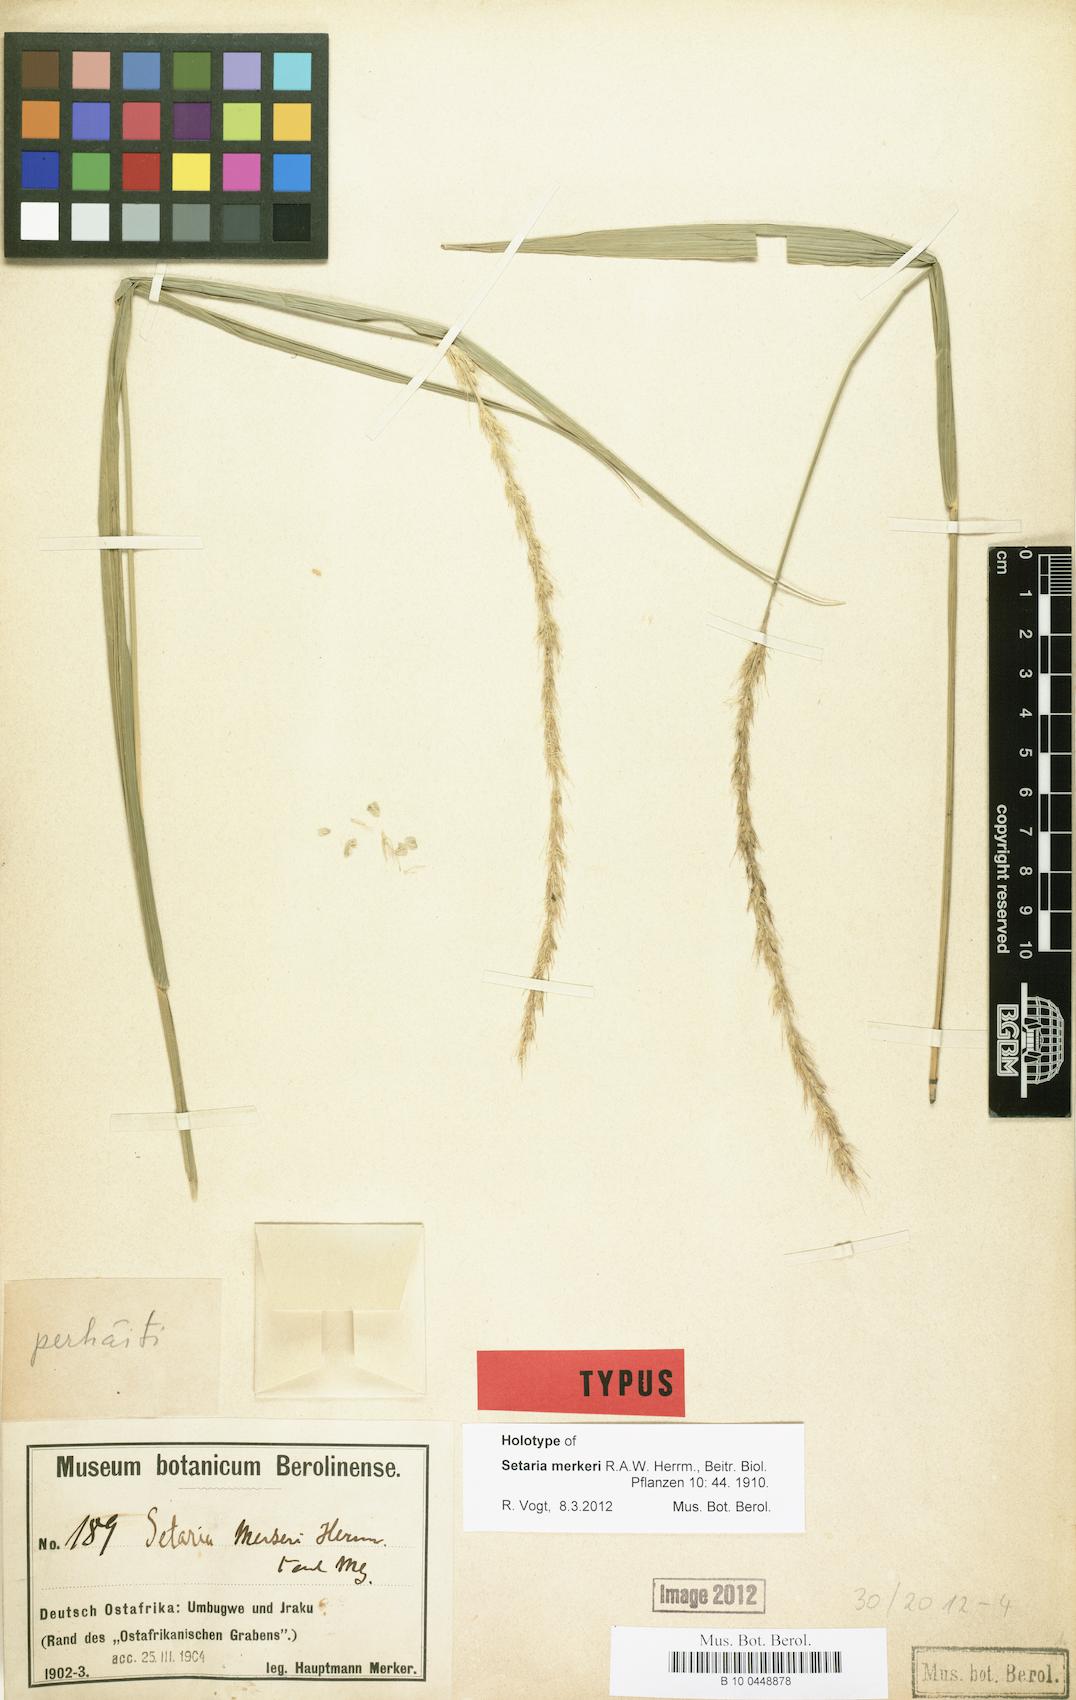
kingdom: Plantae
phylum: Tracheophyta
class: Liliopsida
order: Poales
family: Poaceae
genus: Setaria
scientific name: Setaria incrassata
